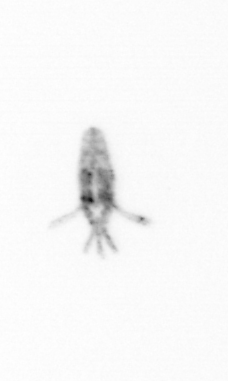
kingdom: Animalia
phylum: Arthropoda
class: Copepoda
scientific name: Copepoda
